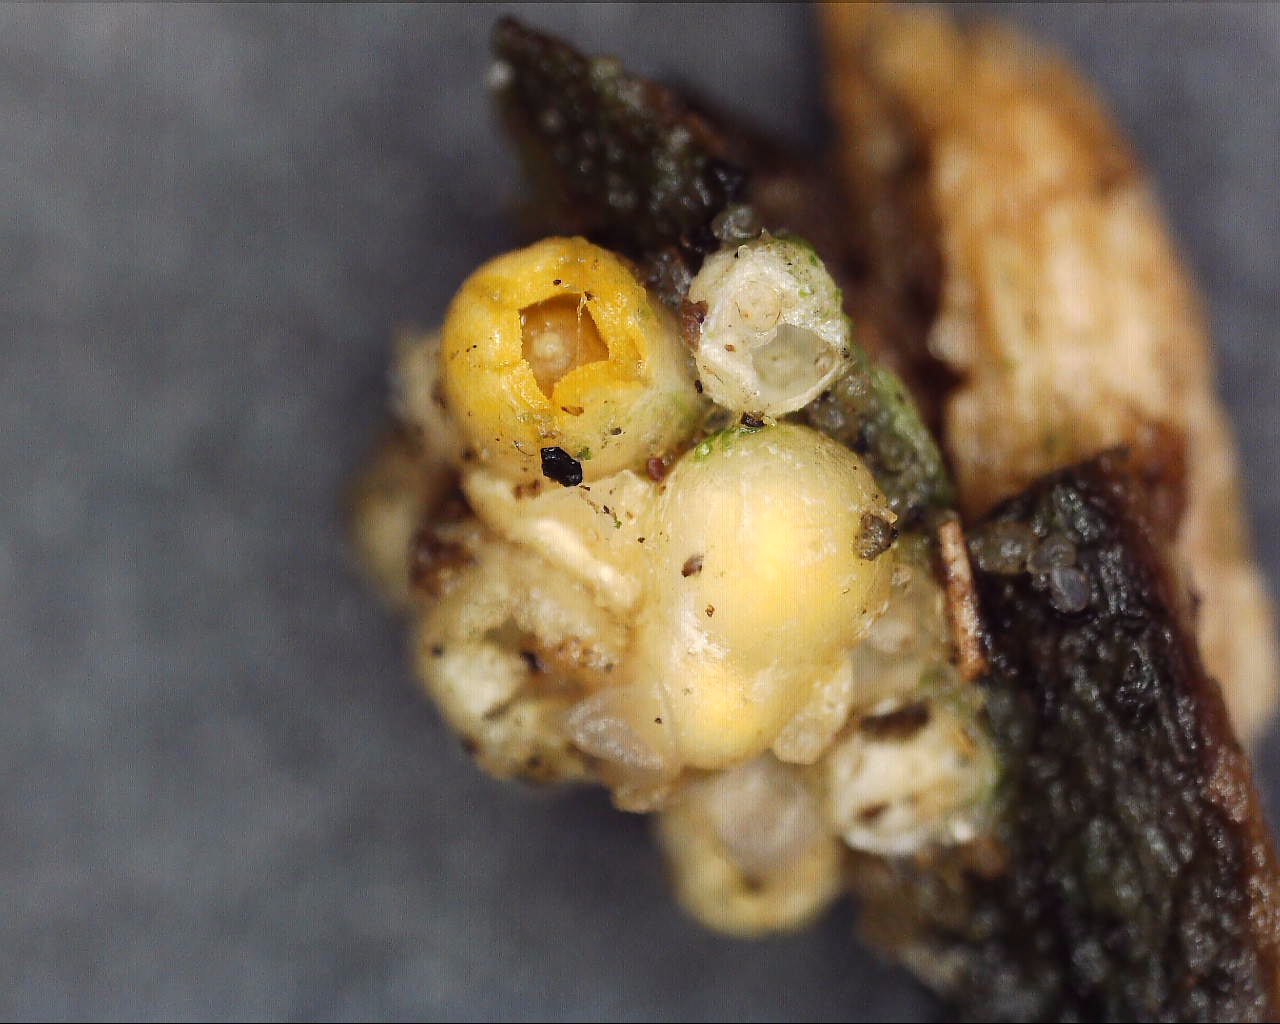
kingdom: Fungi
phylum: Basidiomycota
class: Agaricomycetes
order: Geastrales
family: Geastraceae
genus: Sphaerobolus
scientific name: Sphaerobolus stellatus
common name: bombekaster
